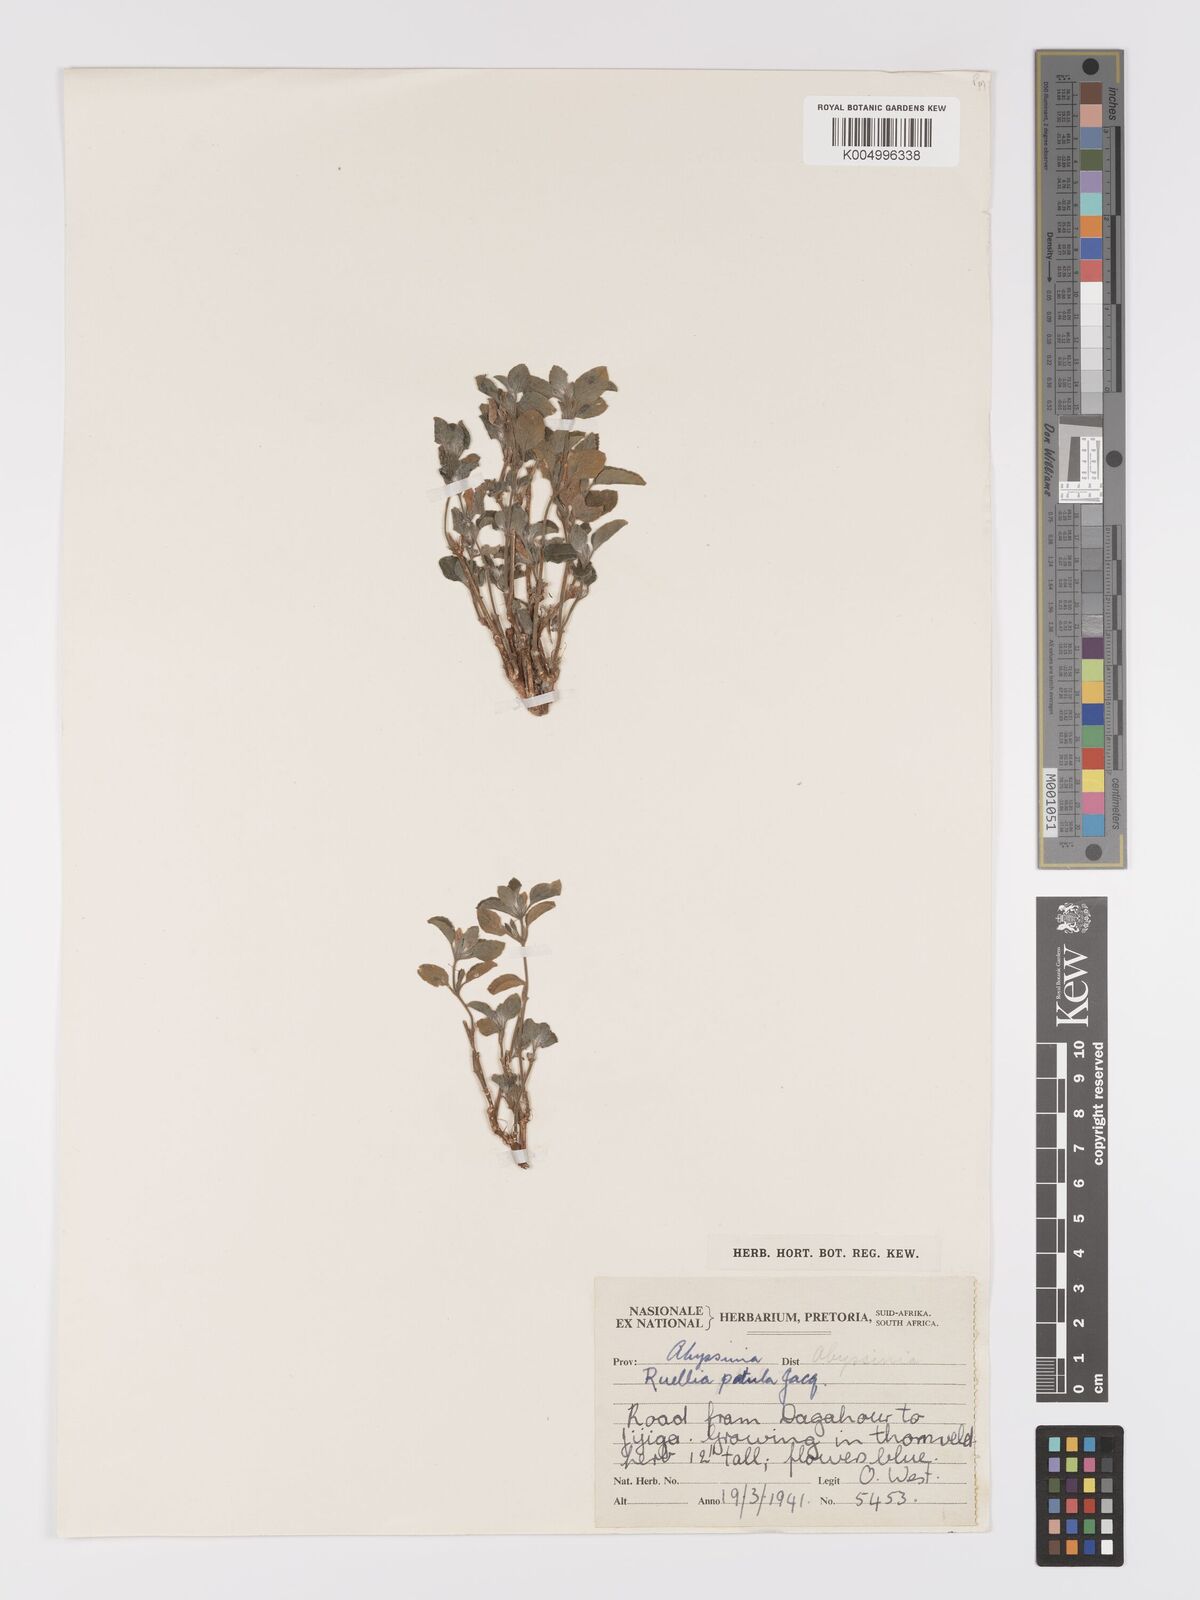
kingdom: Plantae
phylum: Tracheophyta
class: Magnoliopsida
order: Lamiales
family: Acanthaceae
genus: Ruellia
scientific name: Ruellia patula
